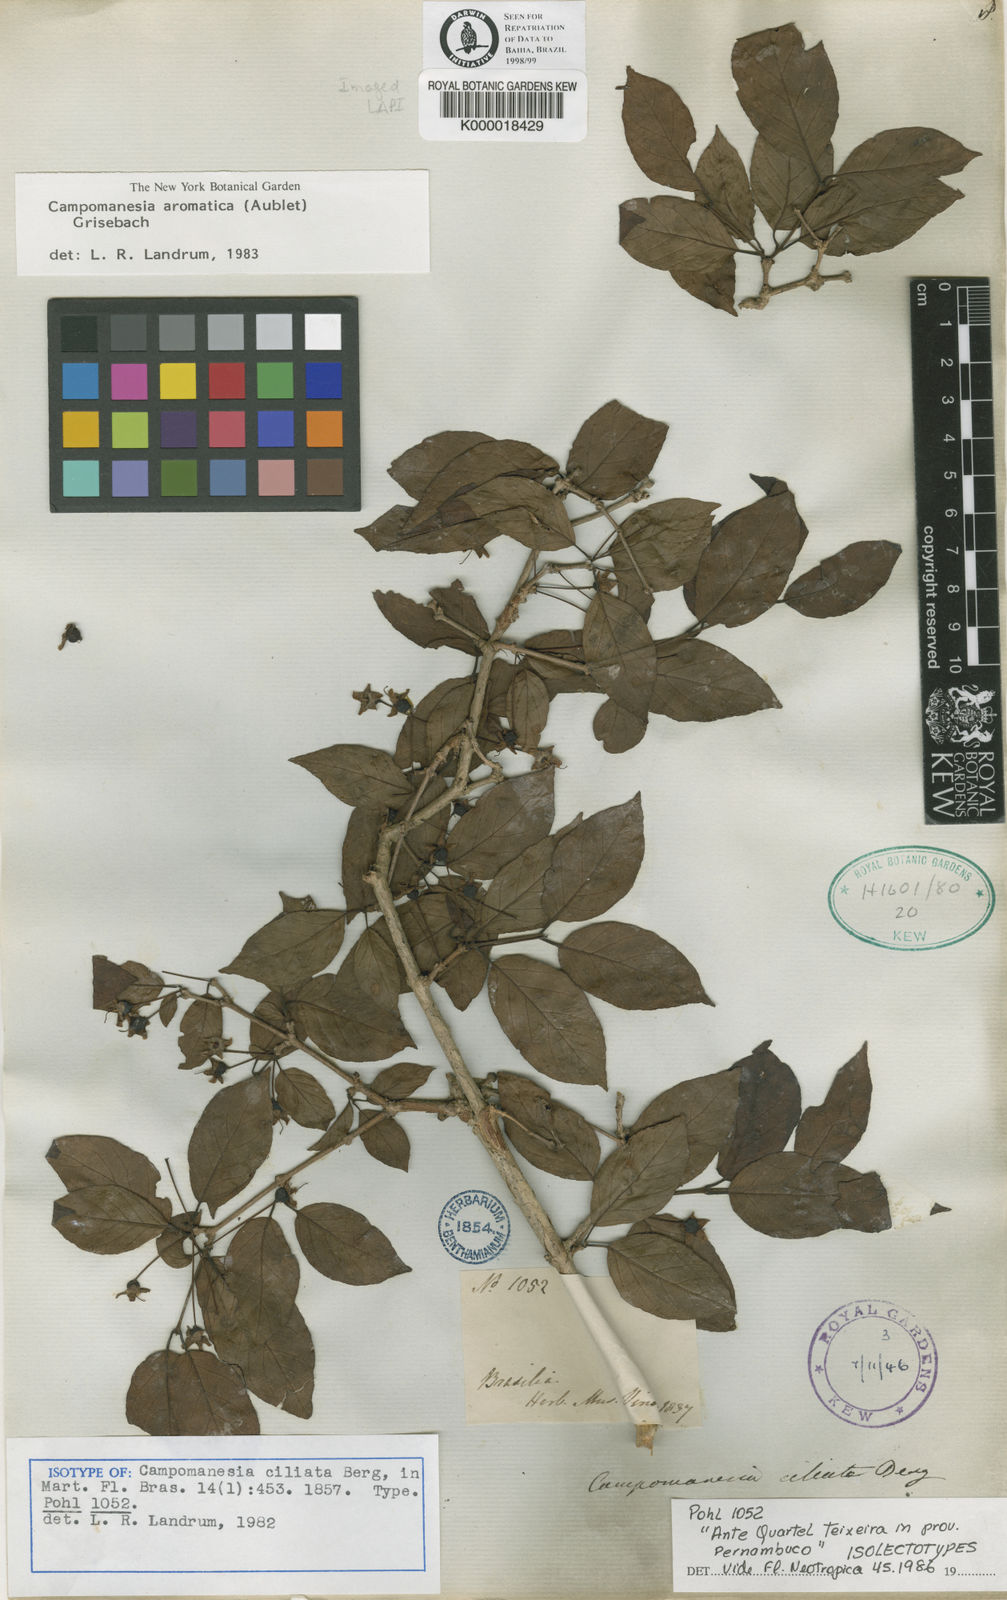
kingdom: Plantae
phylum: Tracheophyta
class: Magnoliopsida
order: Myrtales
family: Myrtaceae
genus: Campomanesia
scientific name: Campomanesia aromatica
